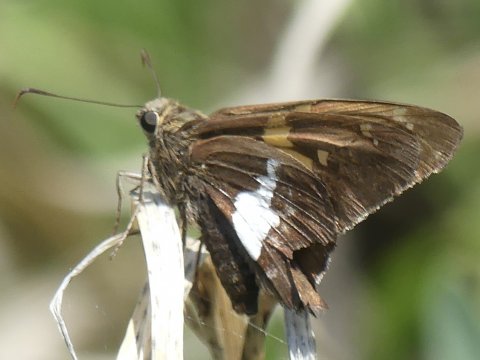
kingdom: Animalia
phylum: Arthropoda
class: Insecta
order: Lepidoptera
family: Hesperiidae
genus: Epargyreus
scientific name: Epargyreus clarus
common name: Silver-spotted Skipper
